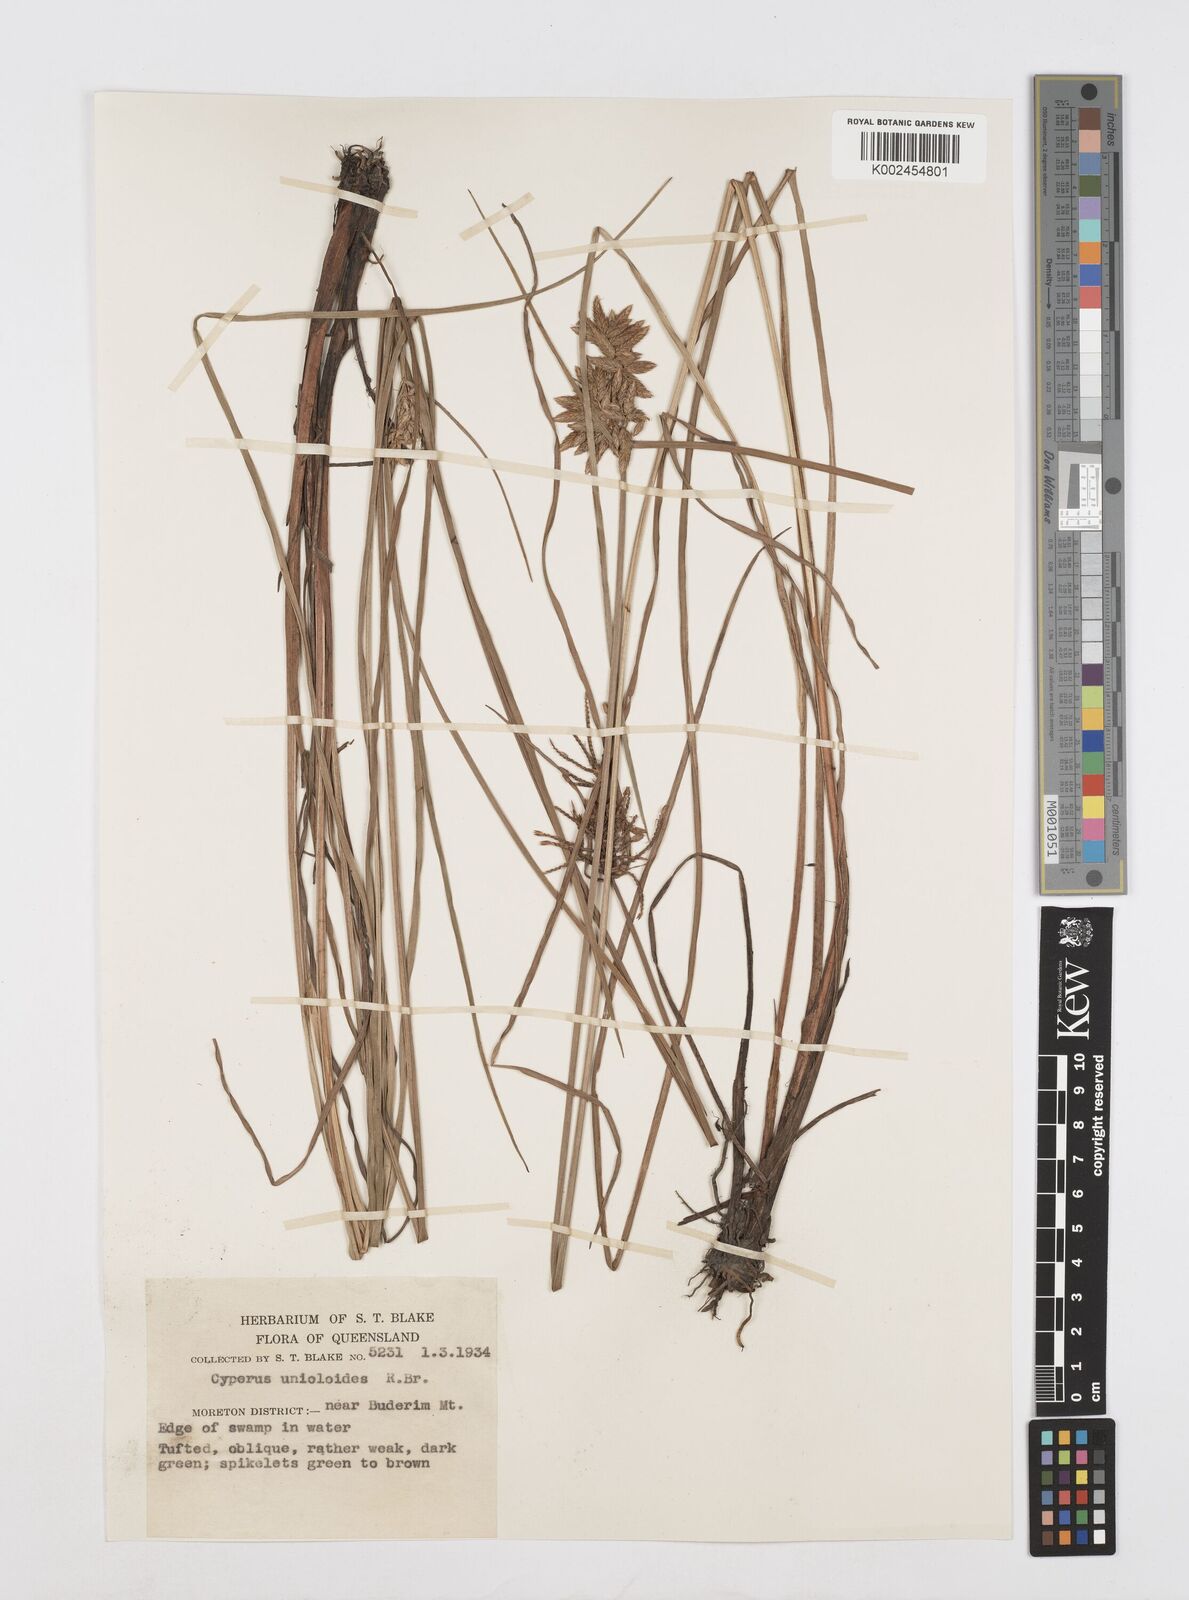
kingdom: Plantae
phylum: Tracheophyta
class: Liliopsida
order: Poales
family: Cyperaceae
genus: Cyperus
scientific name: Cyperus unioloides
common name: Uniola flatsedge
